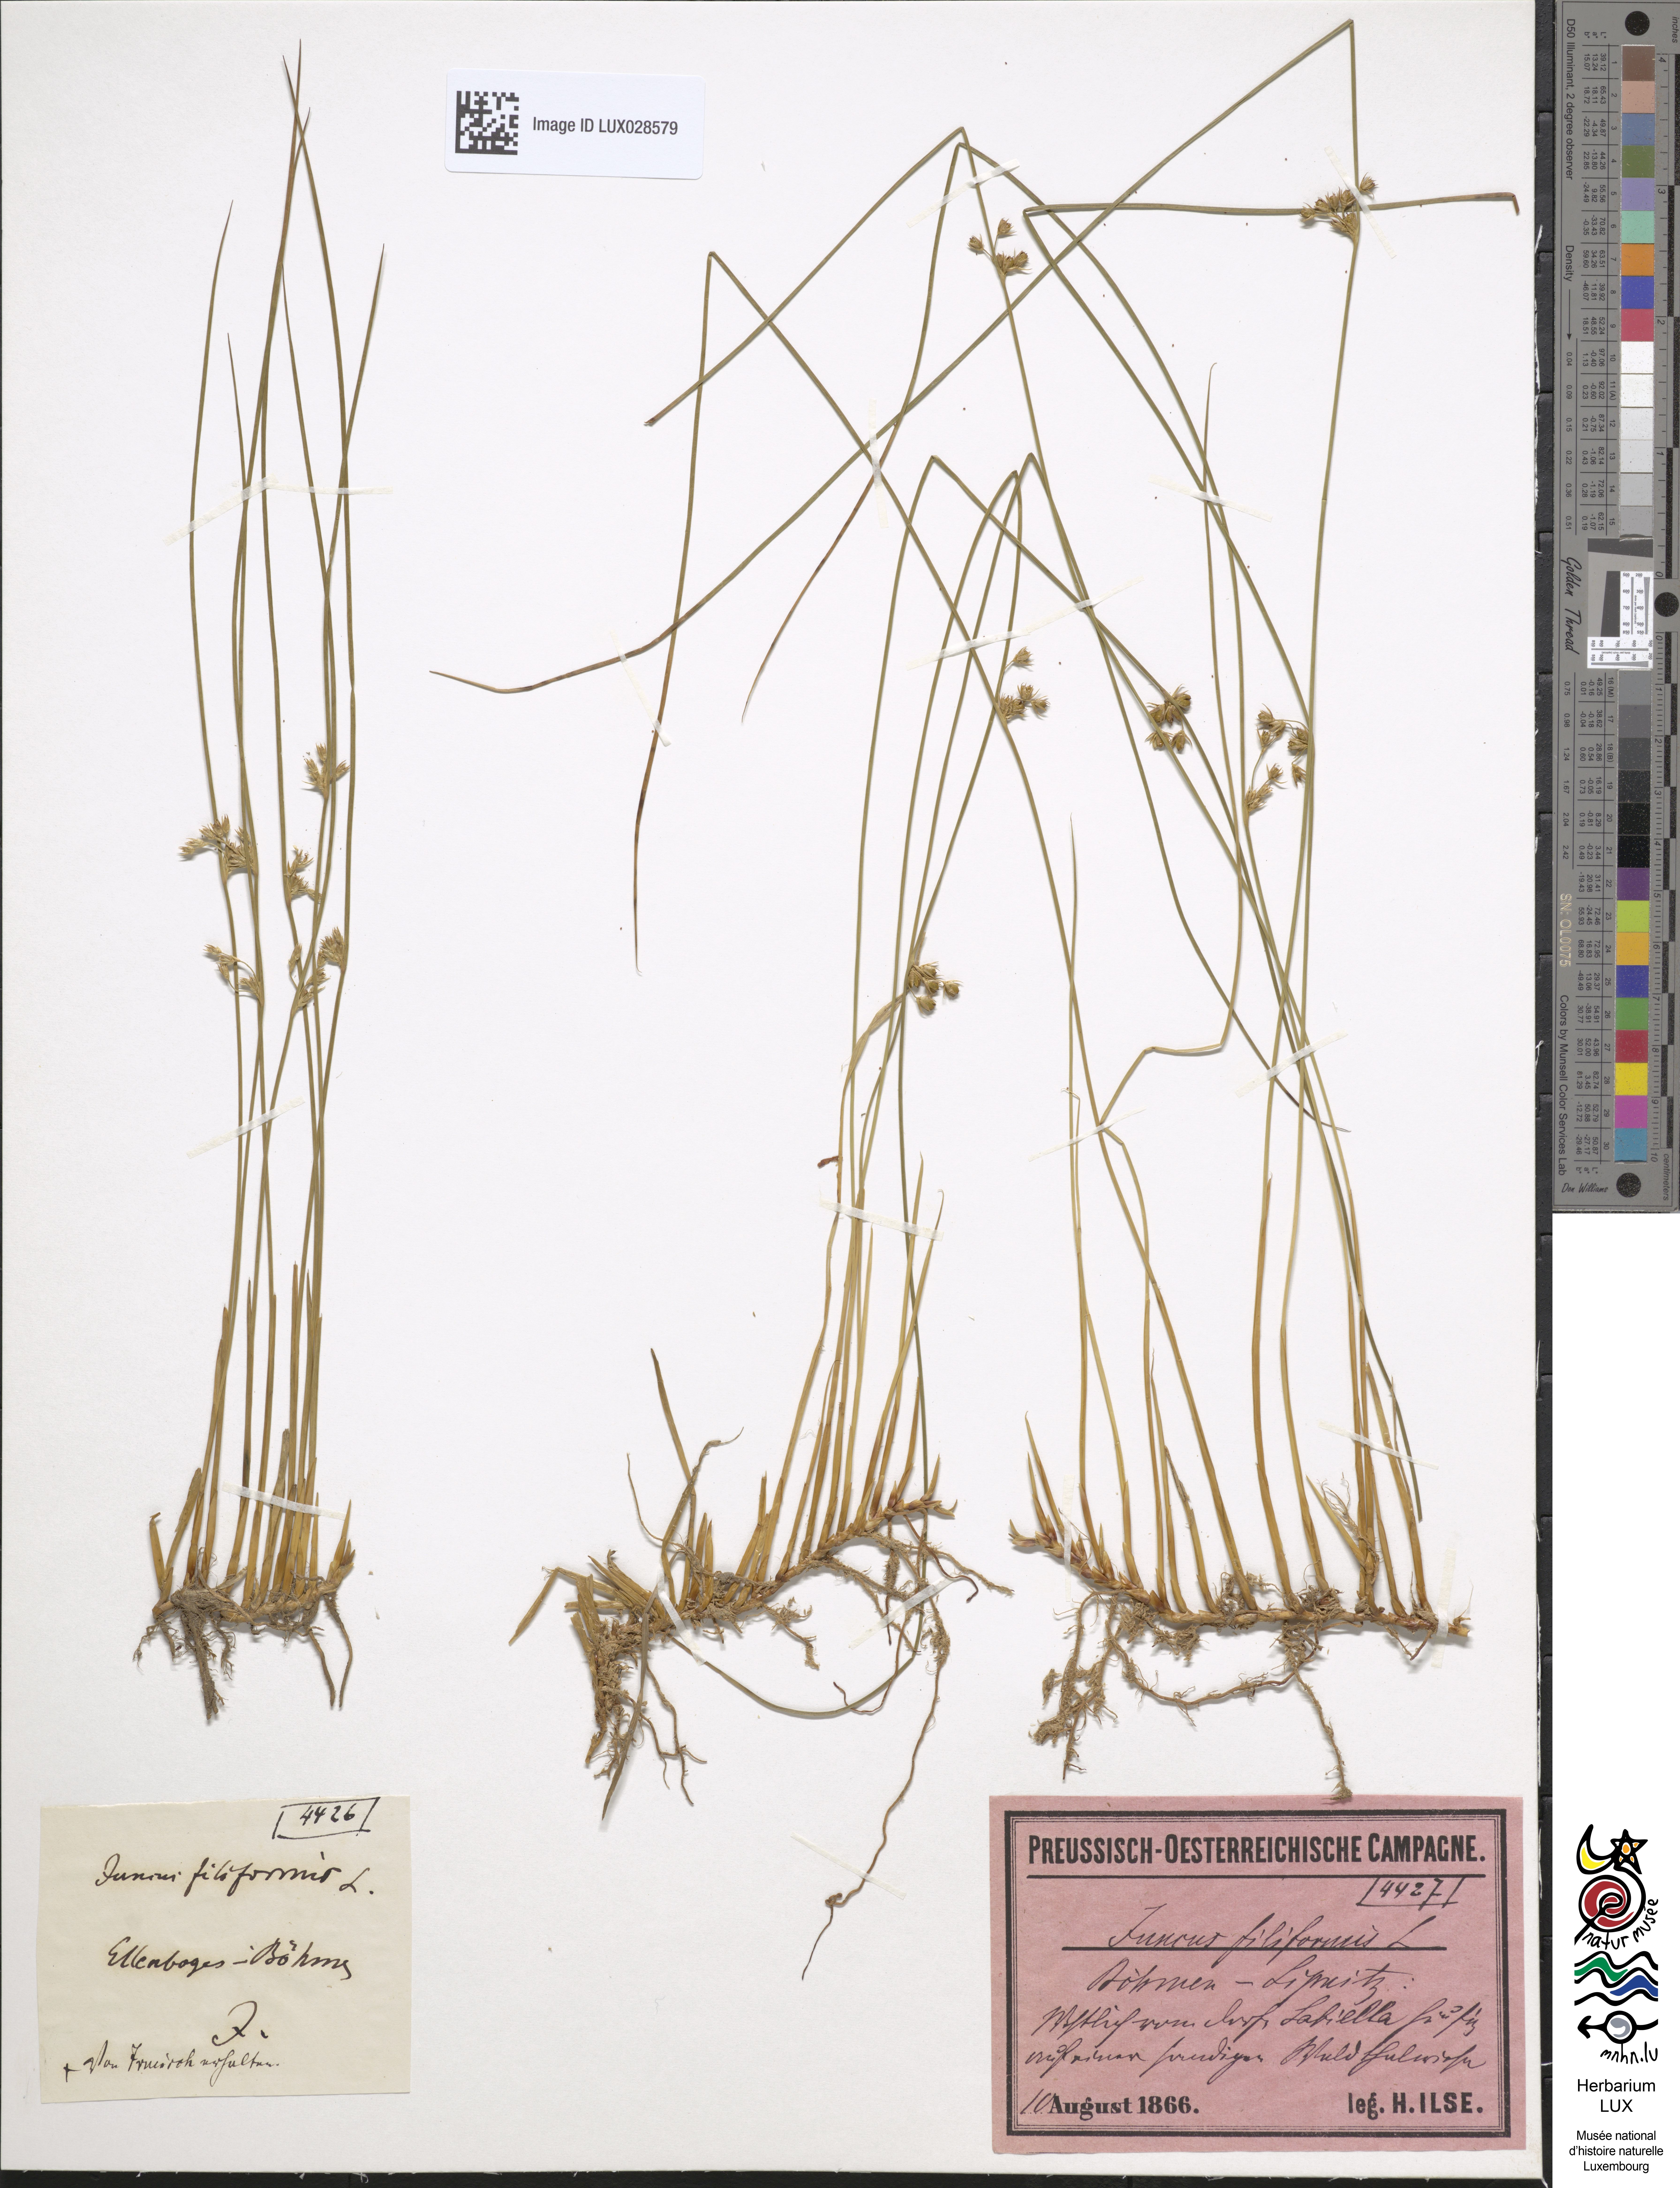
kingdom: Plantae
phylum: Tracheophyta
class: Liliopsida
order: Poales
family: Juncaceae
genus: Juncus
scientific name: Juncus filiformis
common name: Thread rush
